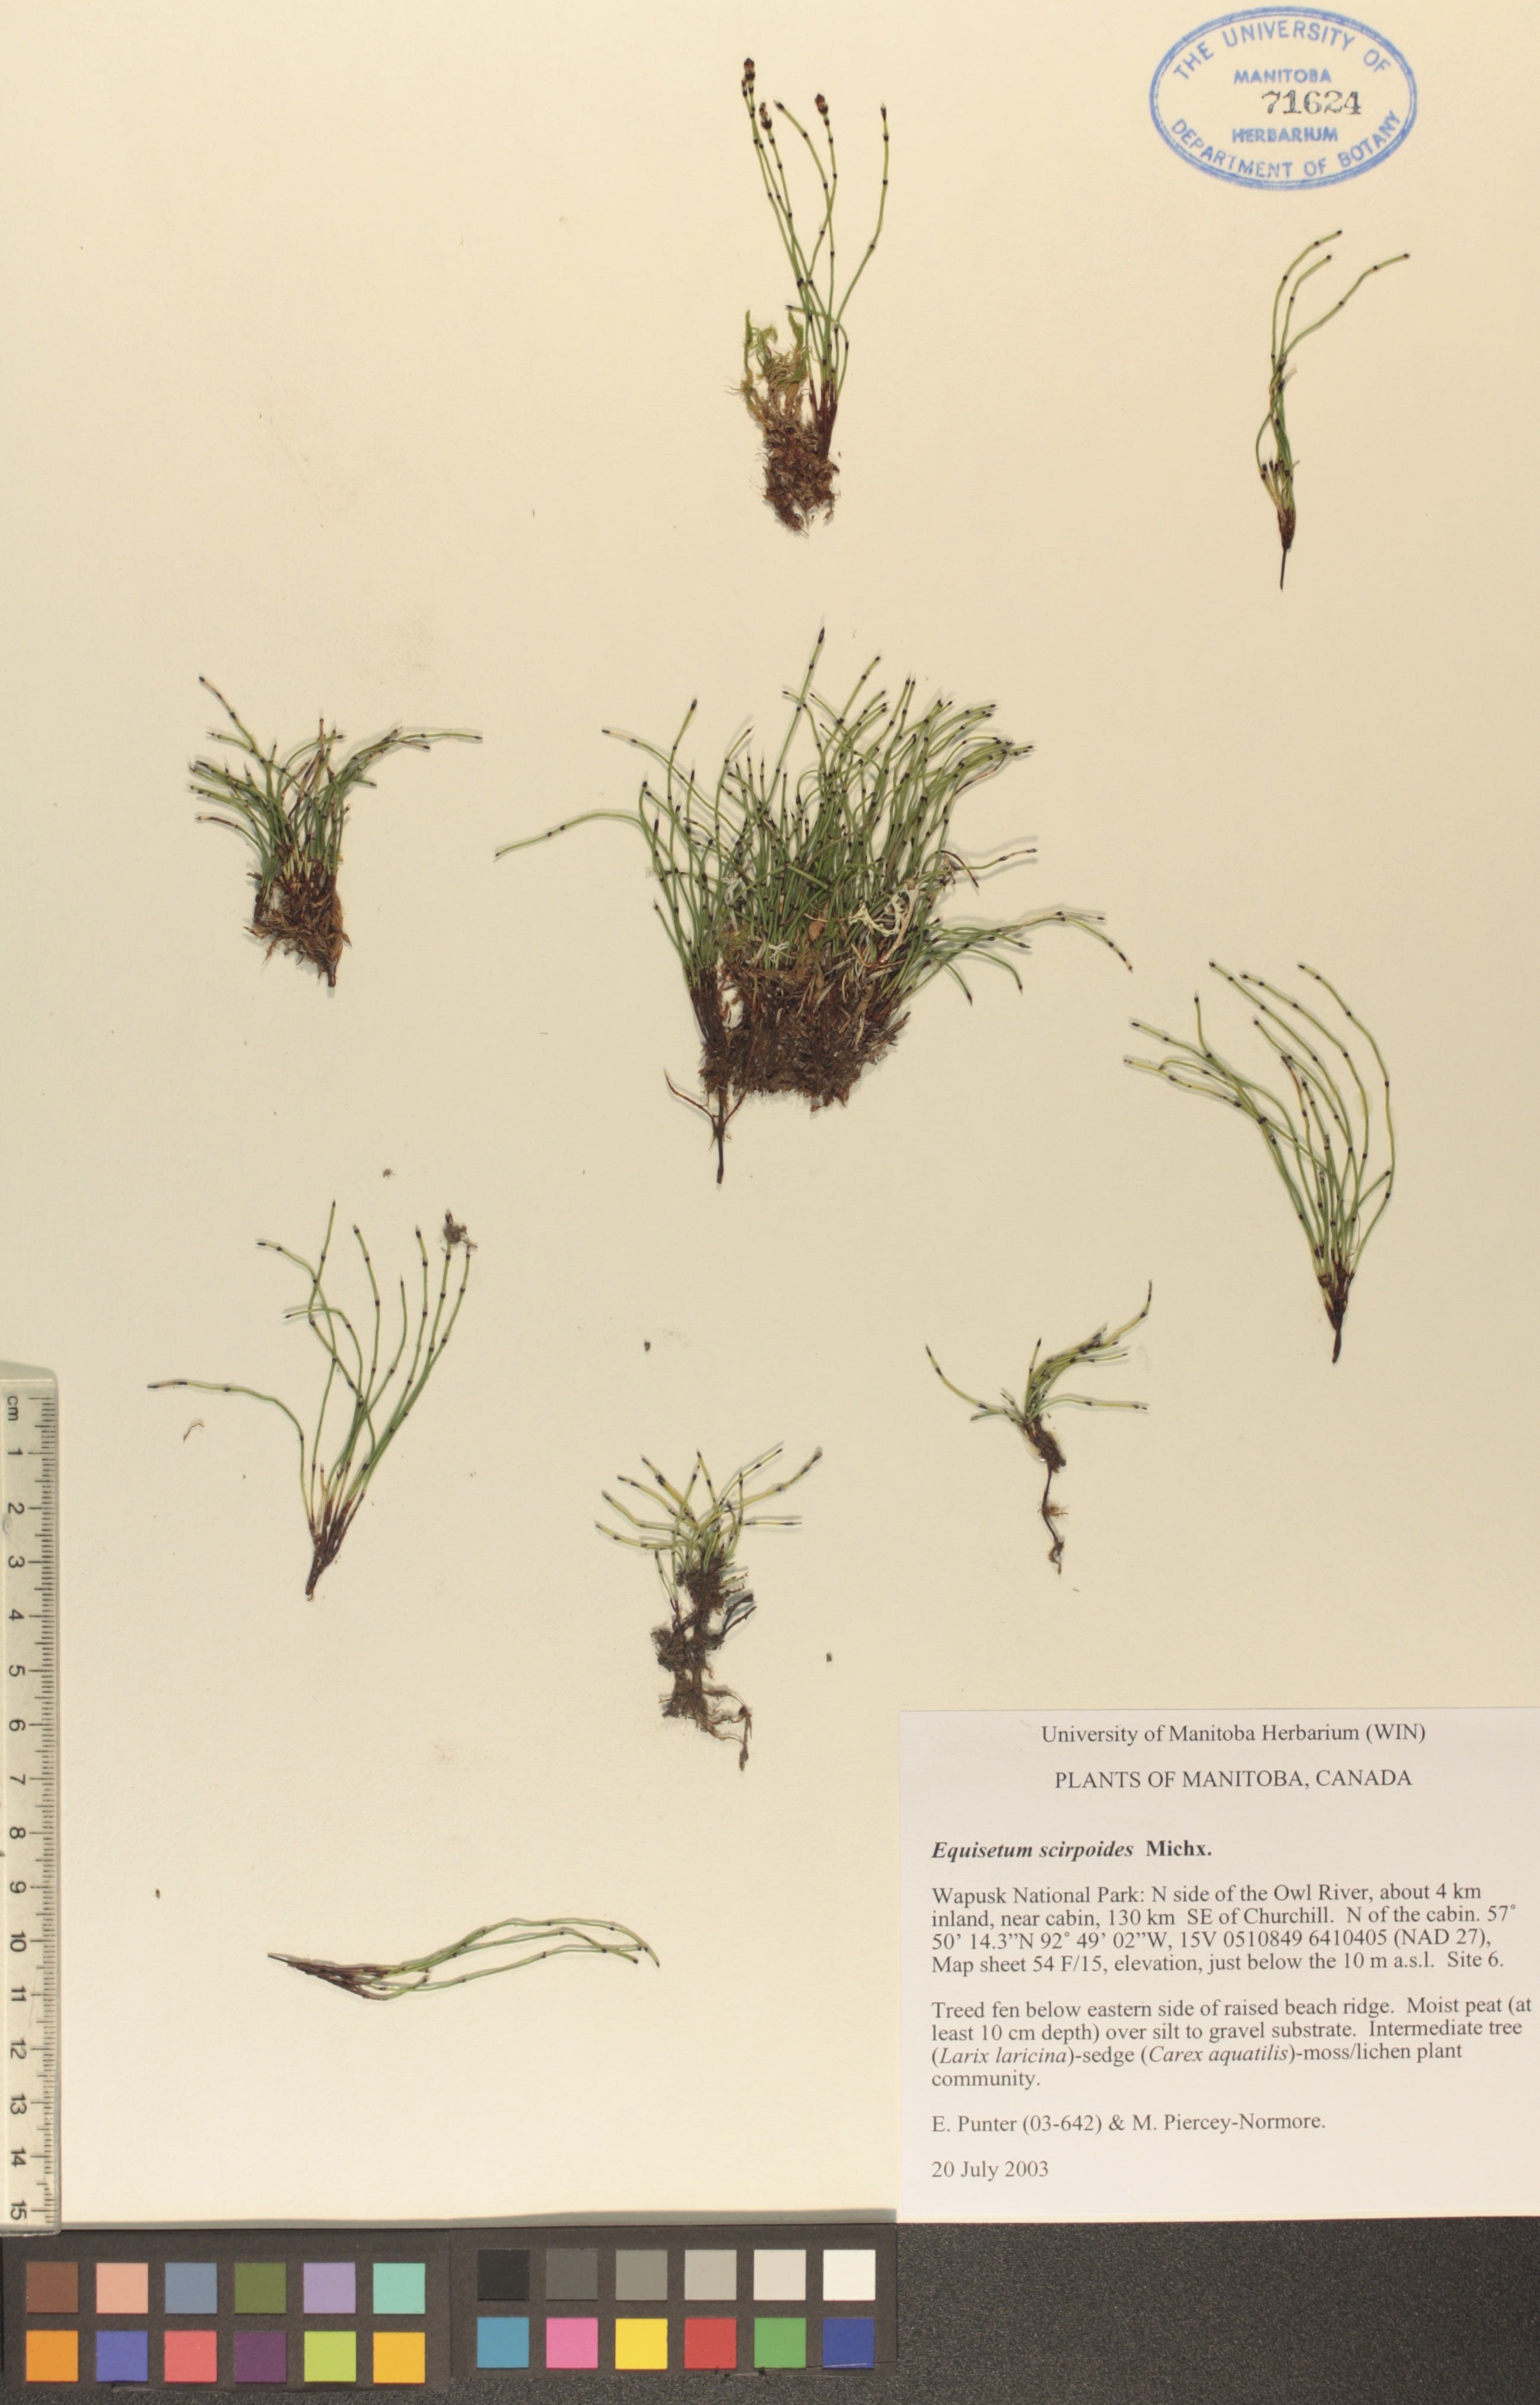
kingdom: Plantae
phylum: Tracheophyta
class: Polypodiopsida
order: Equisetales
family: Equisetaceae
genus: Equisetum
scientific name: Equisetum scirpoides
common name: Delicate horsetail
